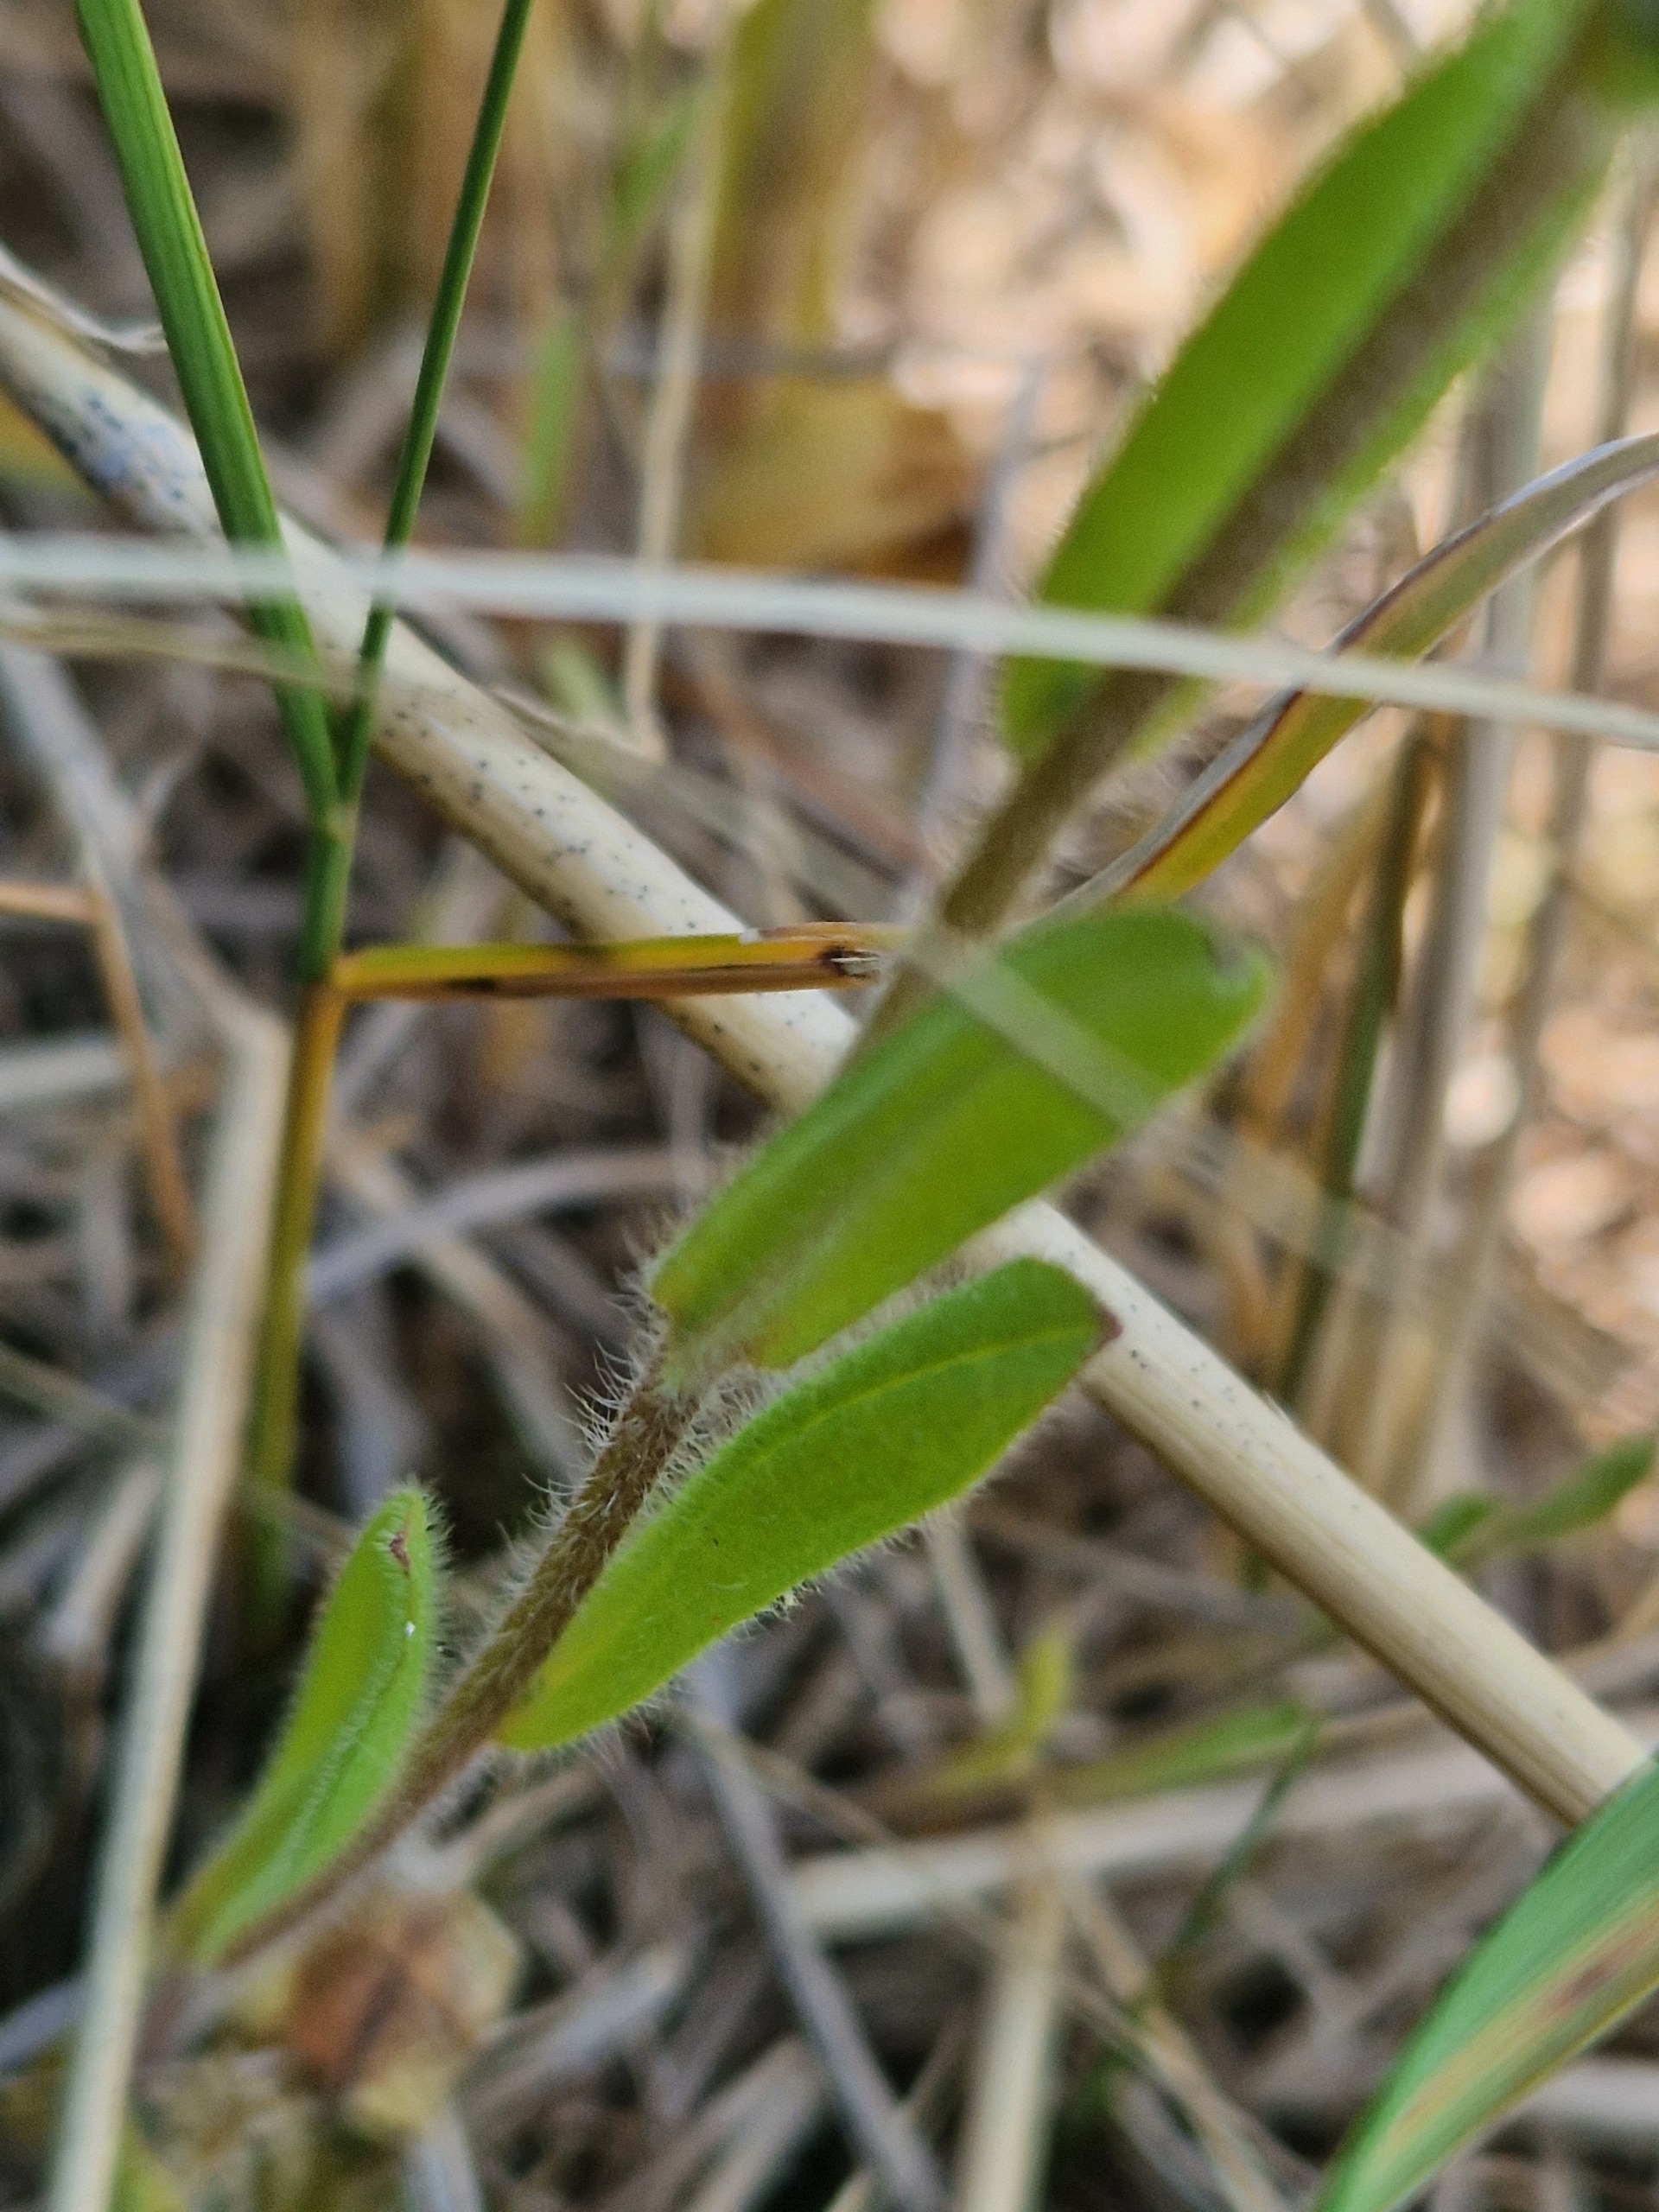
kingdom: Plantae
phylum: Tracheophyta
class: Magnoliopsida
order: Boraginales
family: Boraginaceae
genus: Myosotis
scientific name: Myosotis ramosissima
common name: Bakke-forglemmigej
